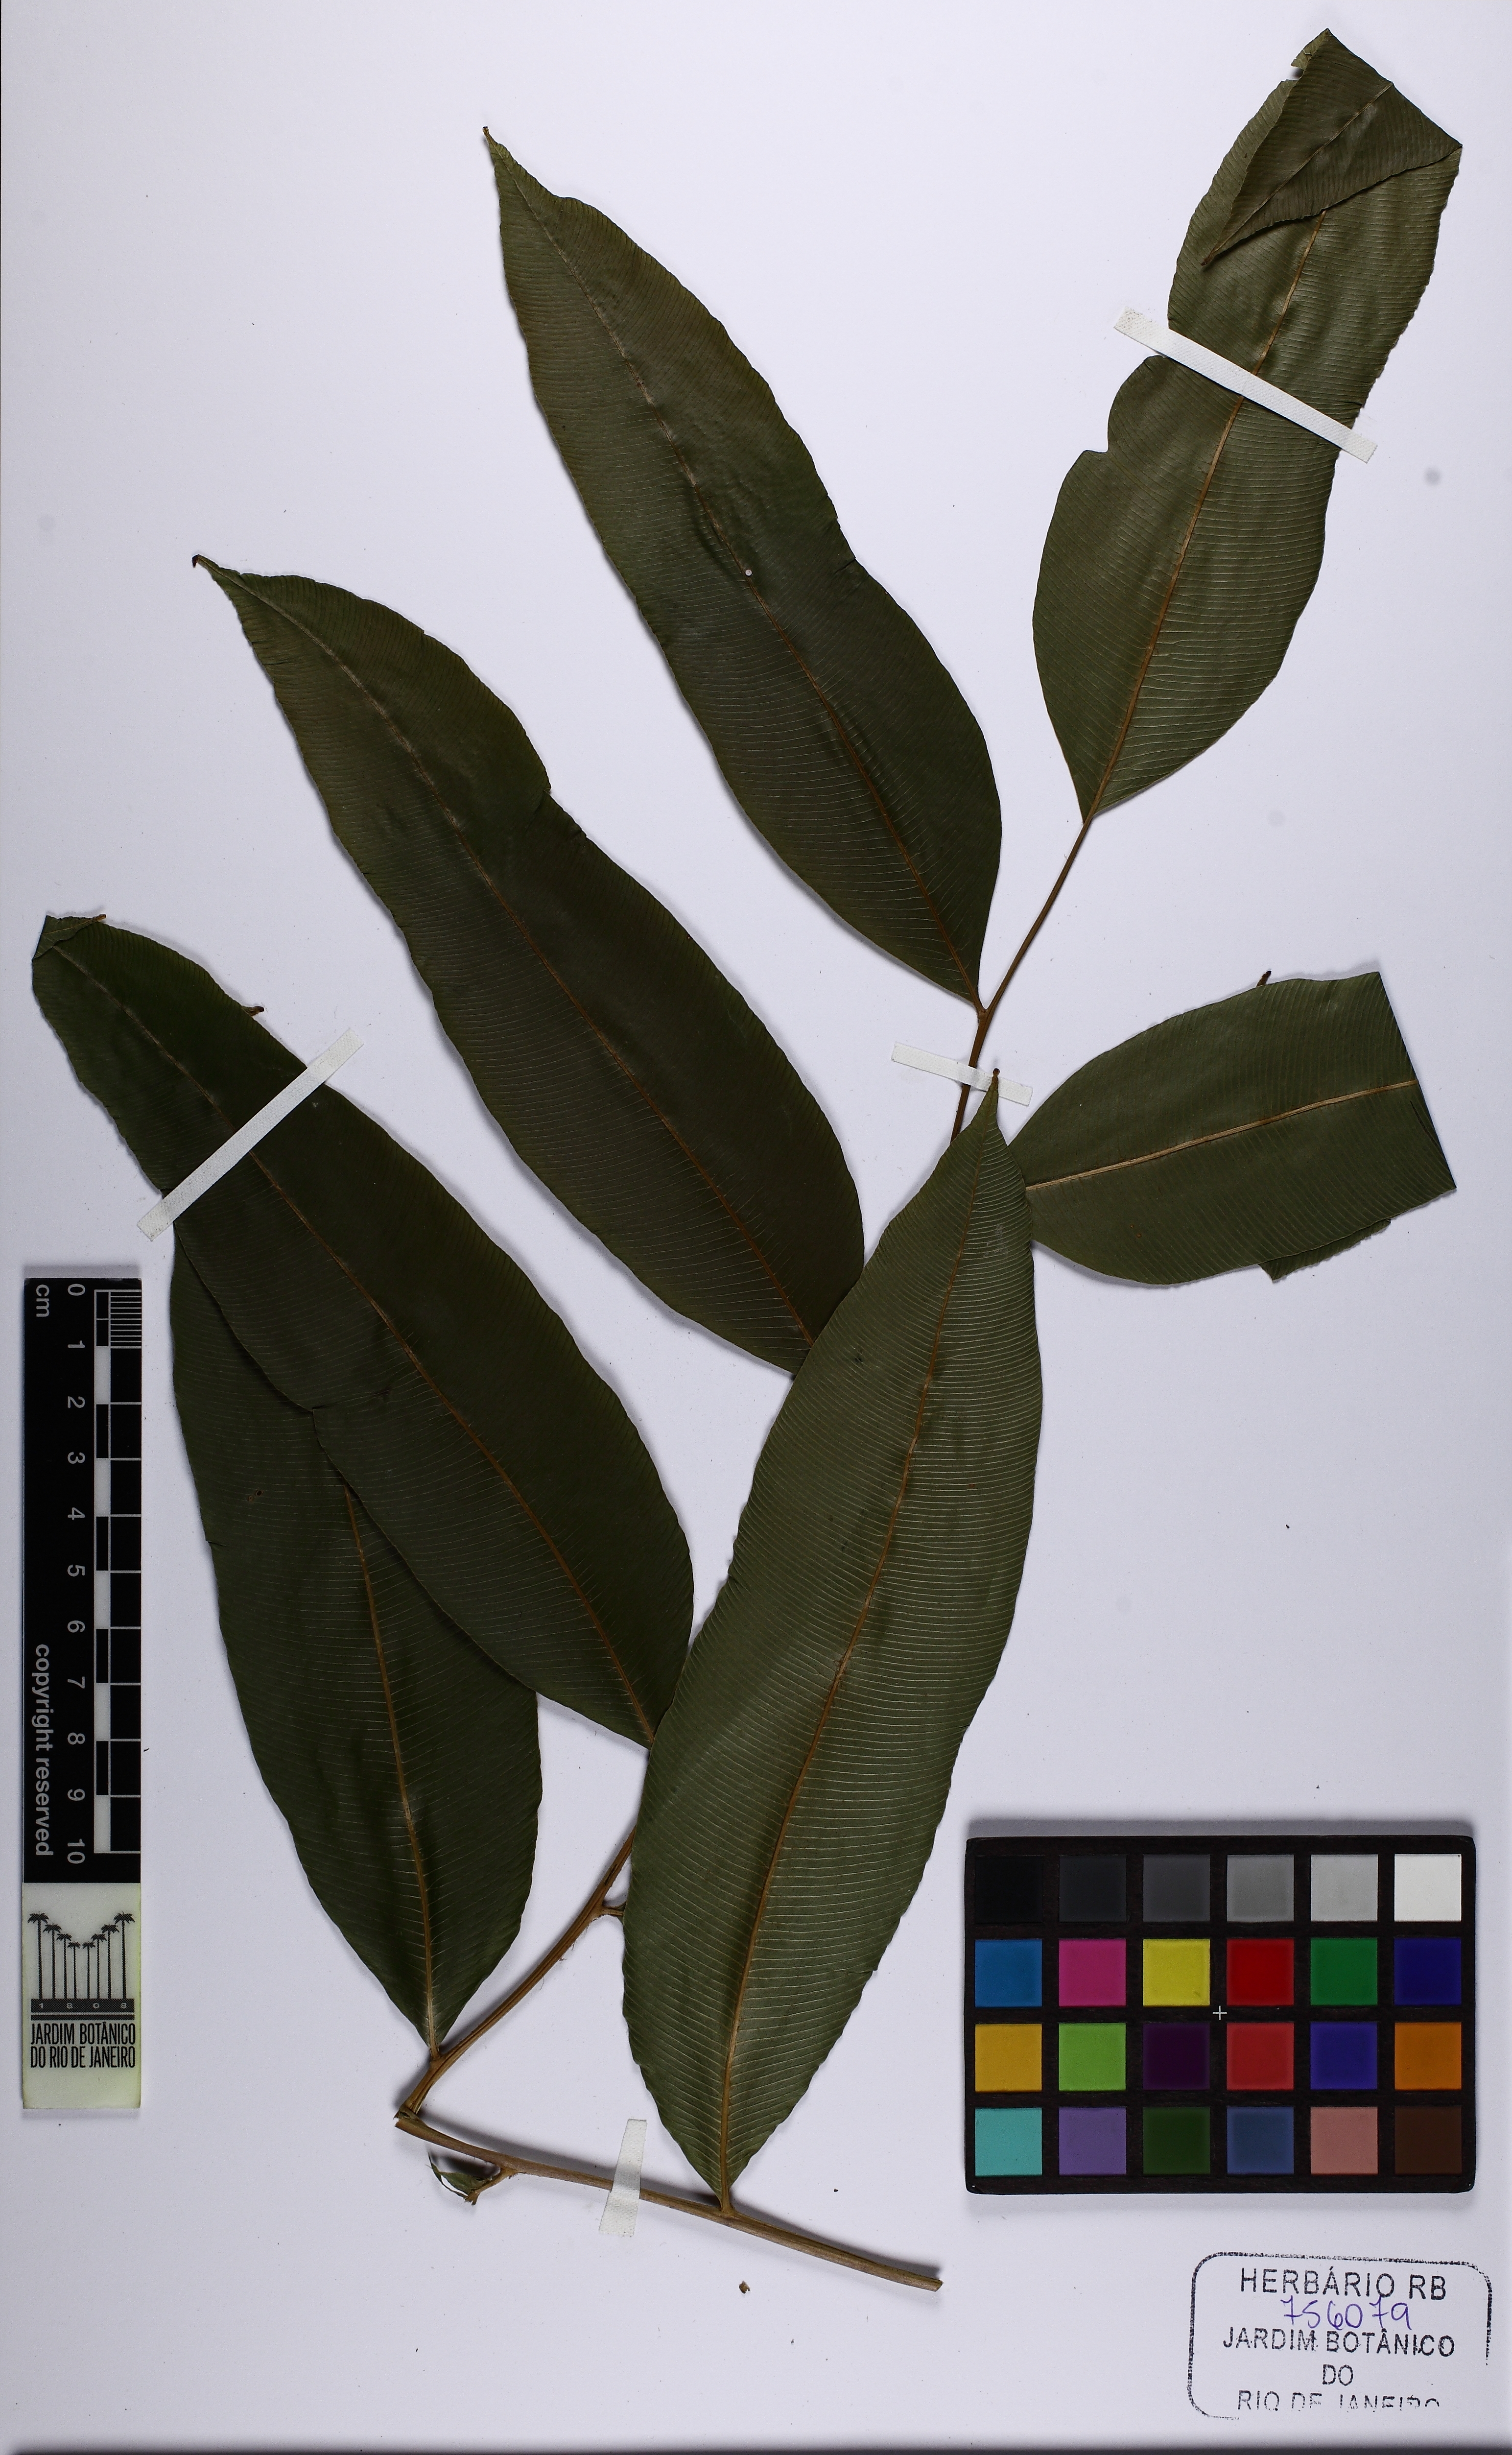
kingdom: Plantae
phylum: Tracheophyta
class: Polypodiopsida
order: Polypodiales
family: Lomariopsidaceae
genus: Lomariopsis
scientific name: Lomariopsis prieuriana
